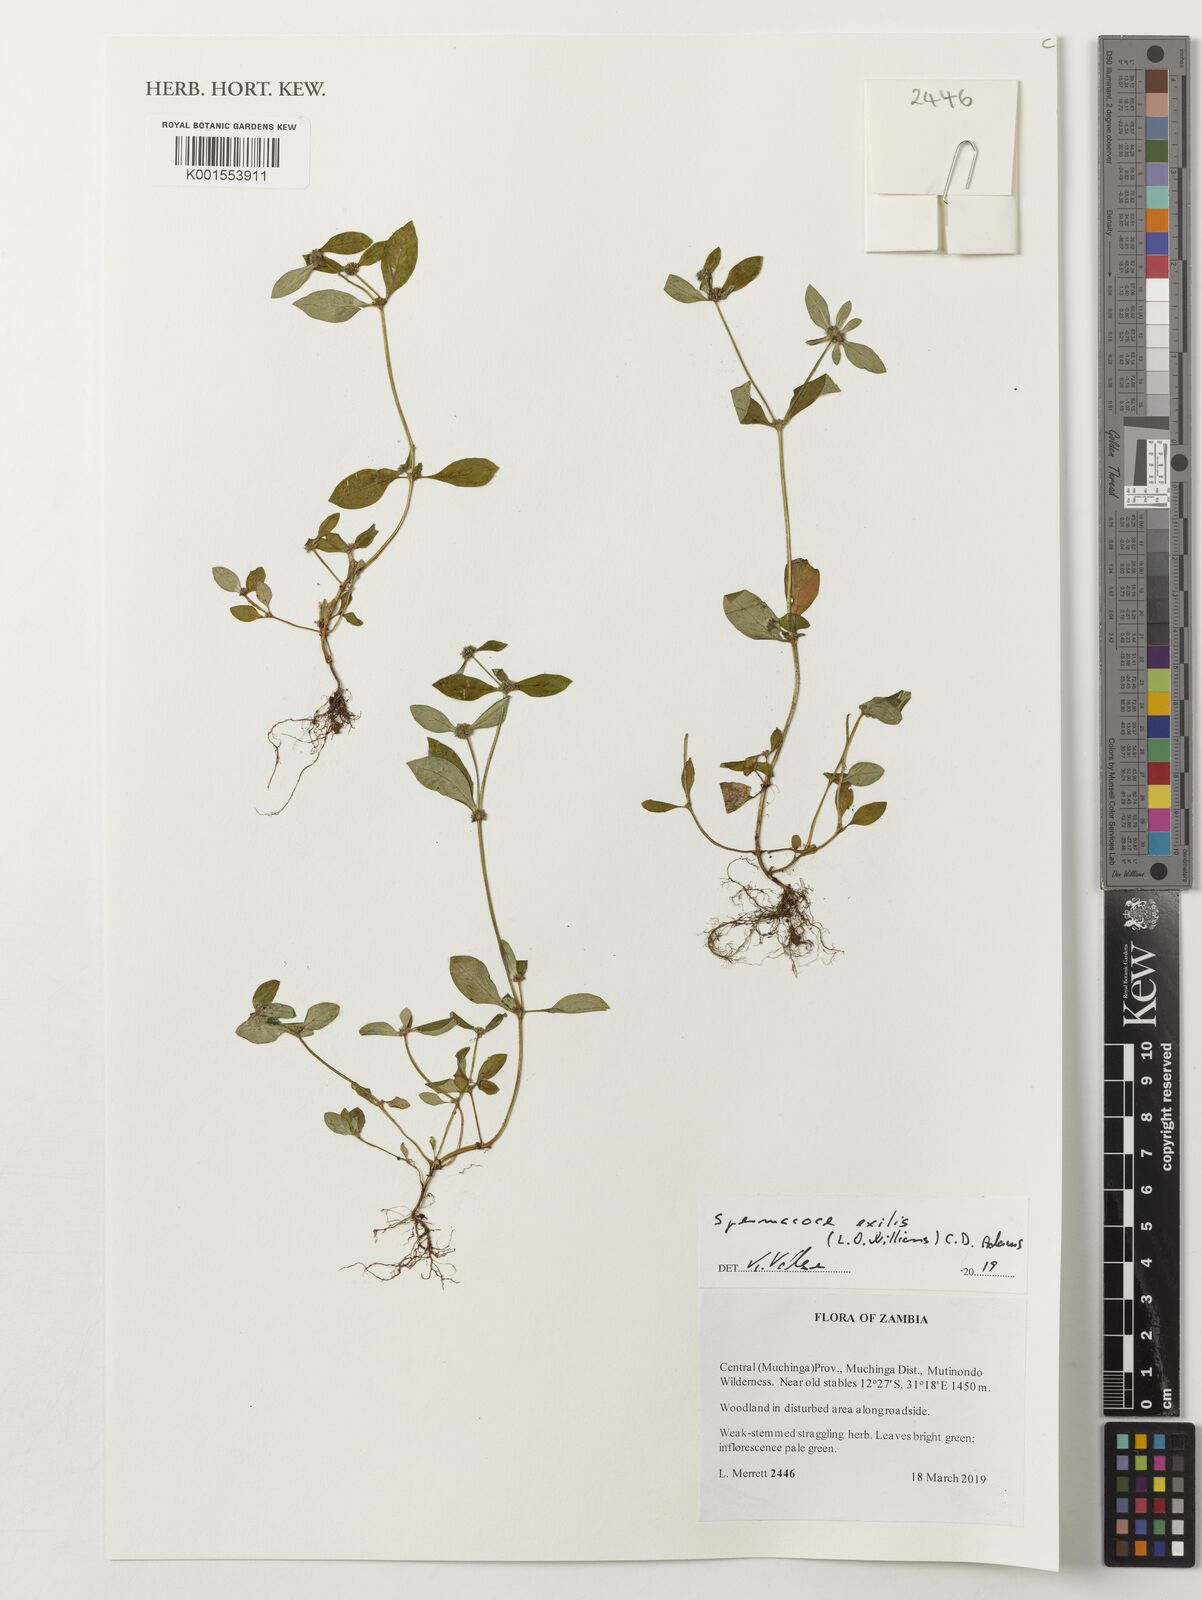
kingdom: Plantae
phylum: Tracheophyta
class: Magnoliopsida
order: Gentianales
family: Rubiaceae
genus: Spermacoce
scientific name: Spermacoce exilis
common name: Pacific false buttonweed
